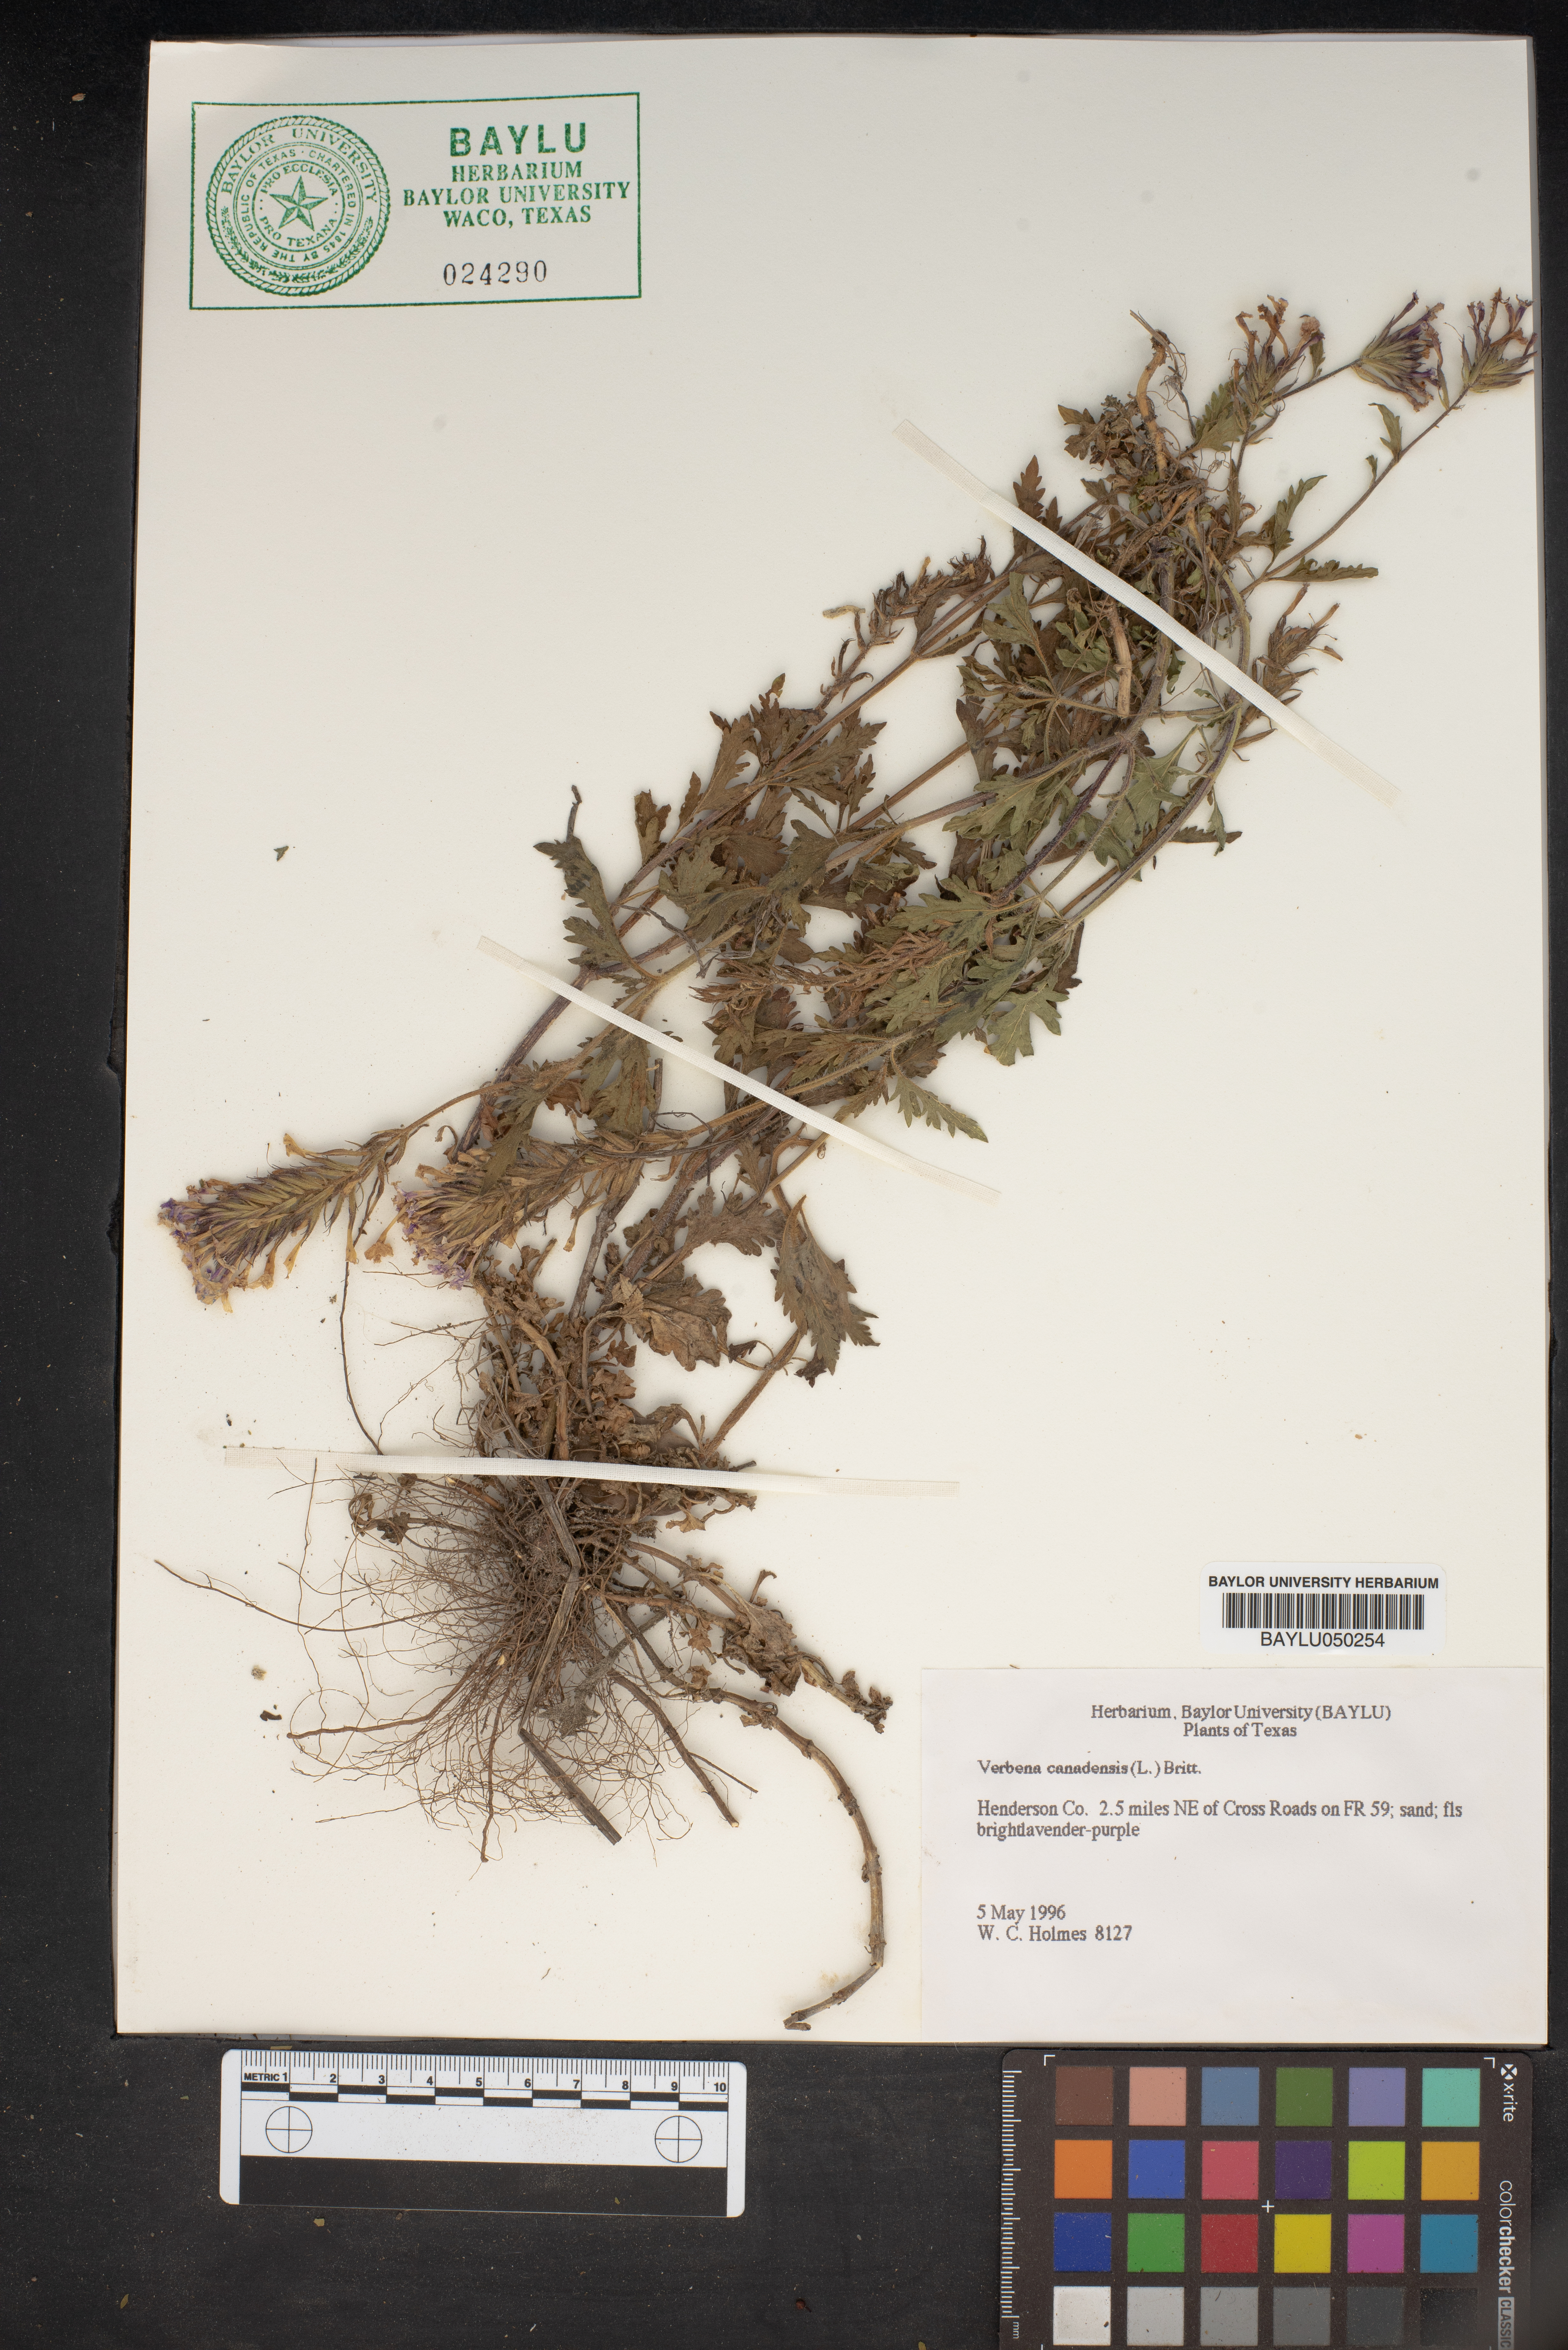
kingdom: Plantae
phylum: Tracheophyta
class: Magnoliopsida
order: Lamiales
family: Verbenaceae
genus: Verbena
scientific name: Verbena canadensis
